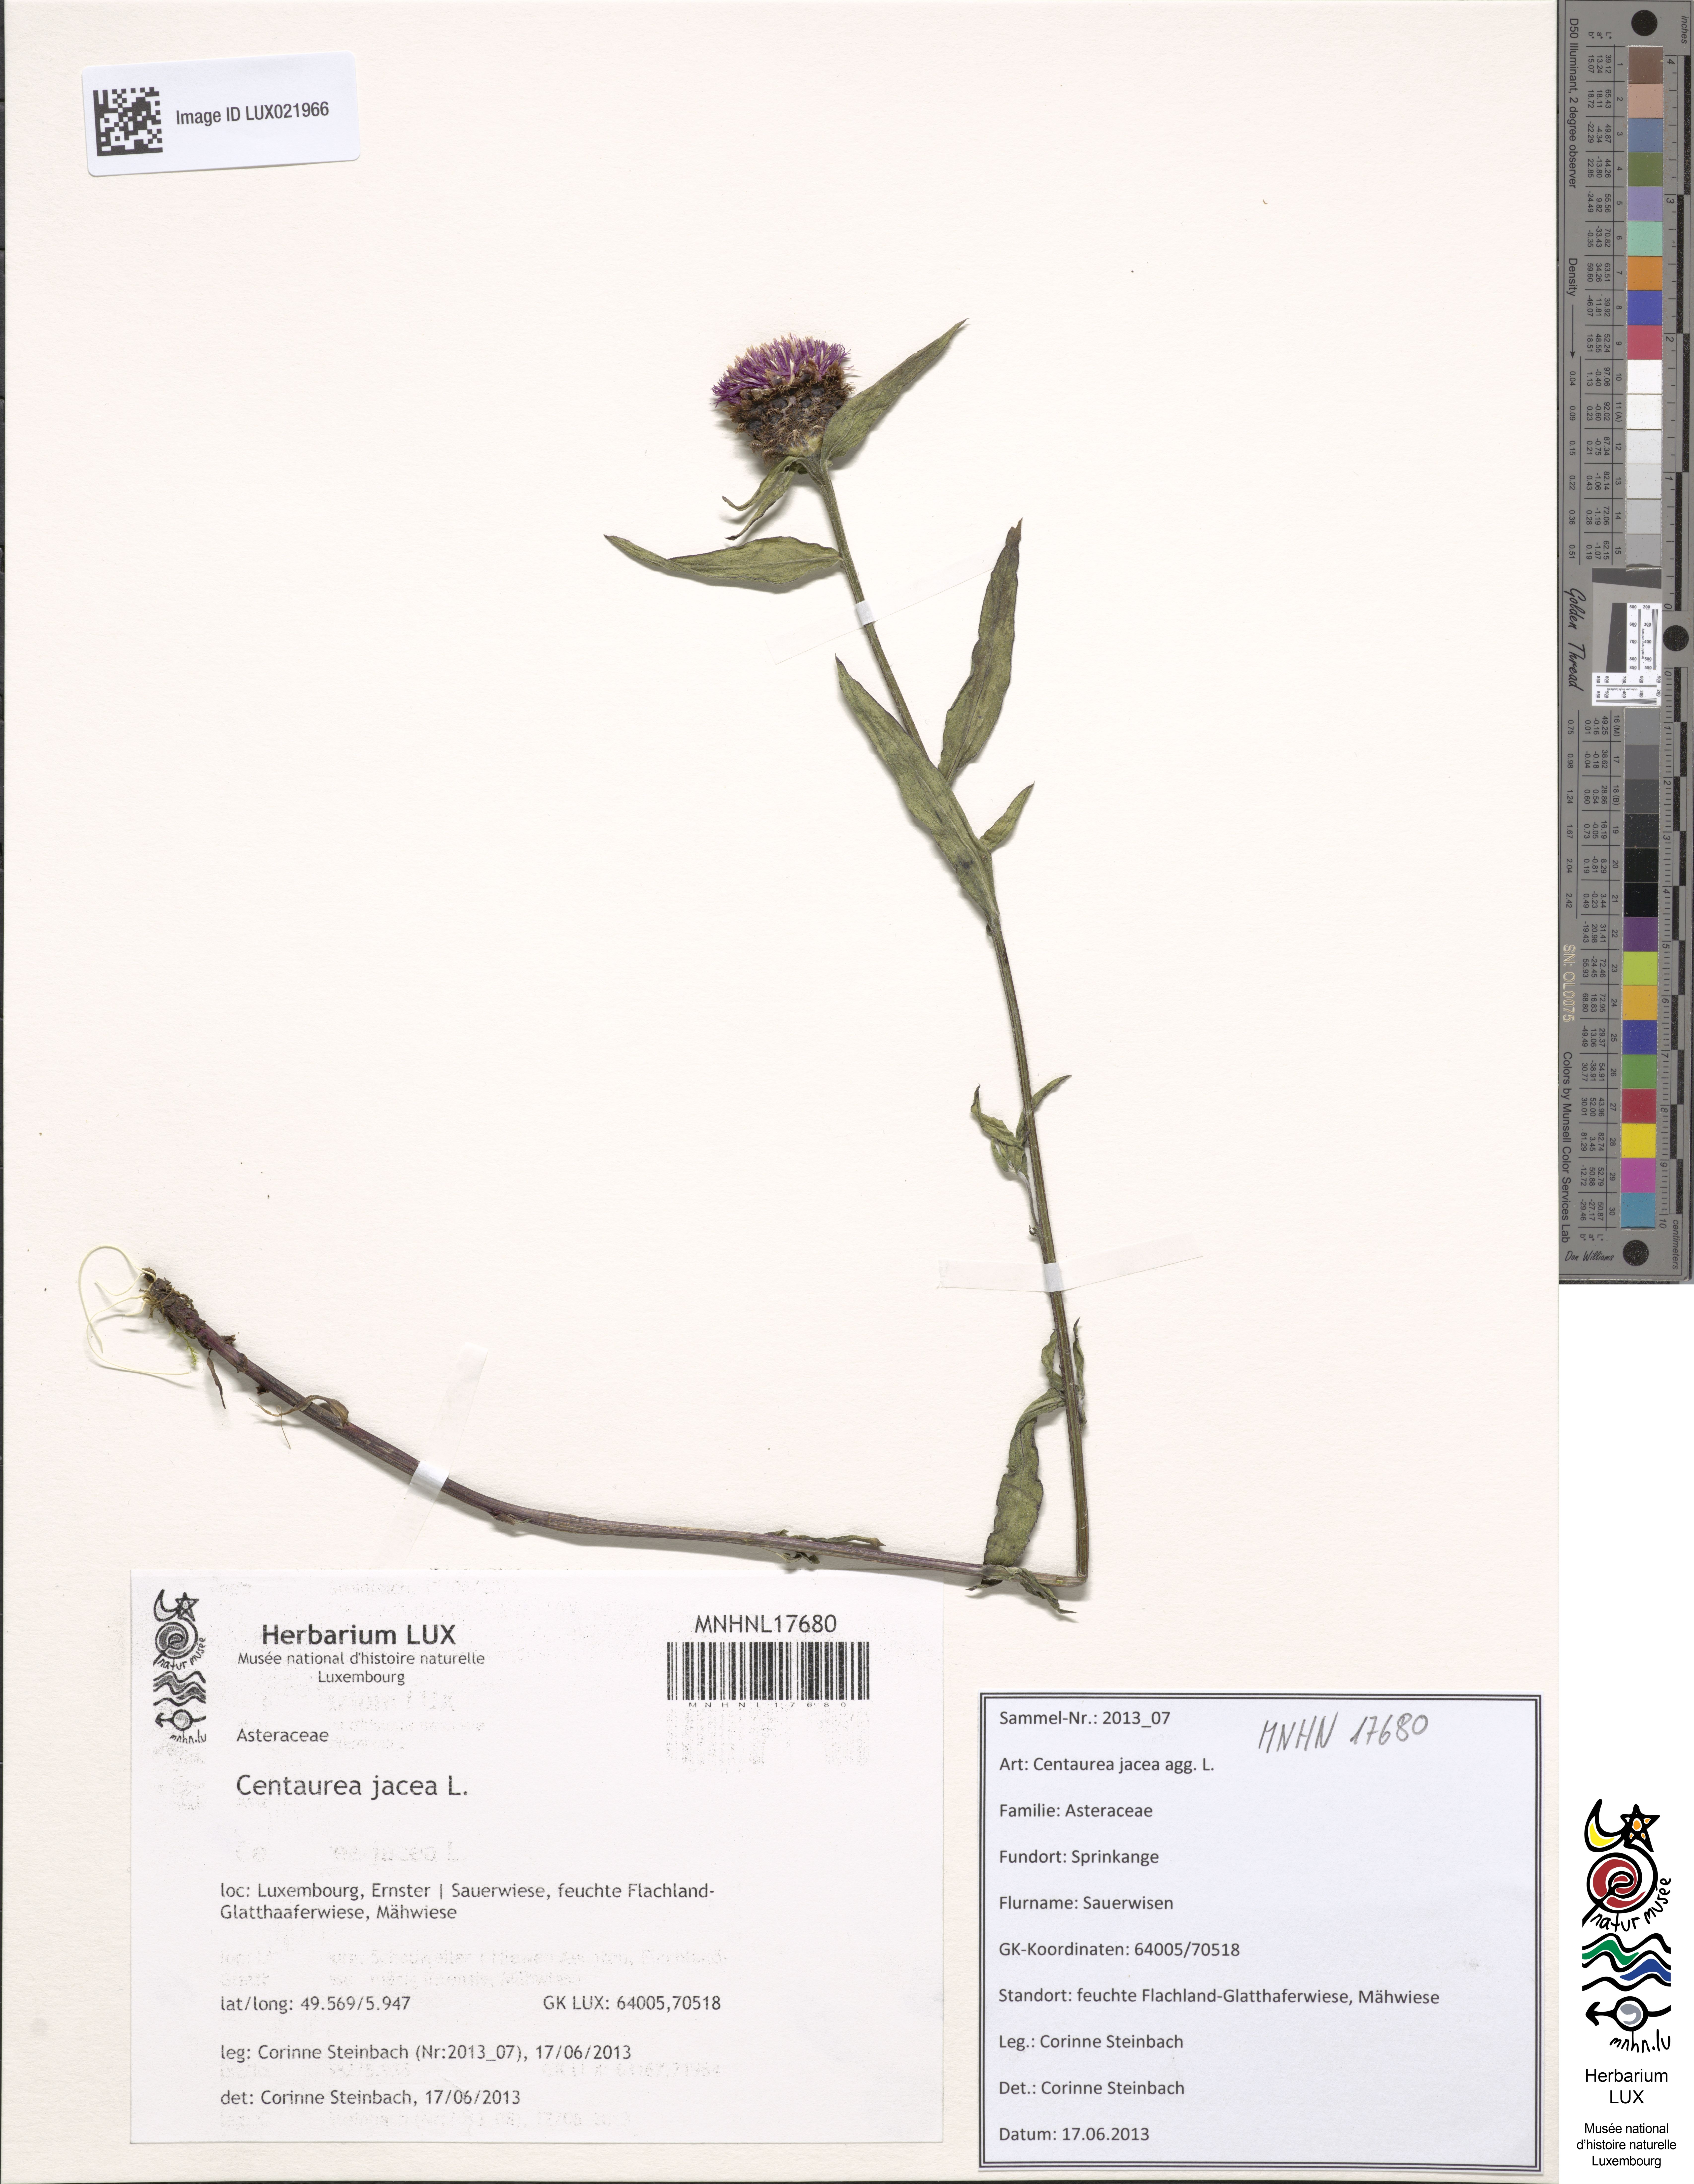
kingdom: Plantae
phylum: Tracheophyta
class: Magnoliopsida
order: Asterales
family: Asteraceae
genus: Centaurea
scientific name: Centaurea jacea
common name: Brown knapweed
